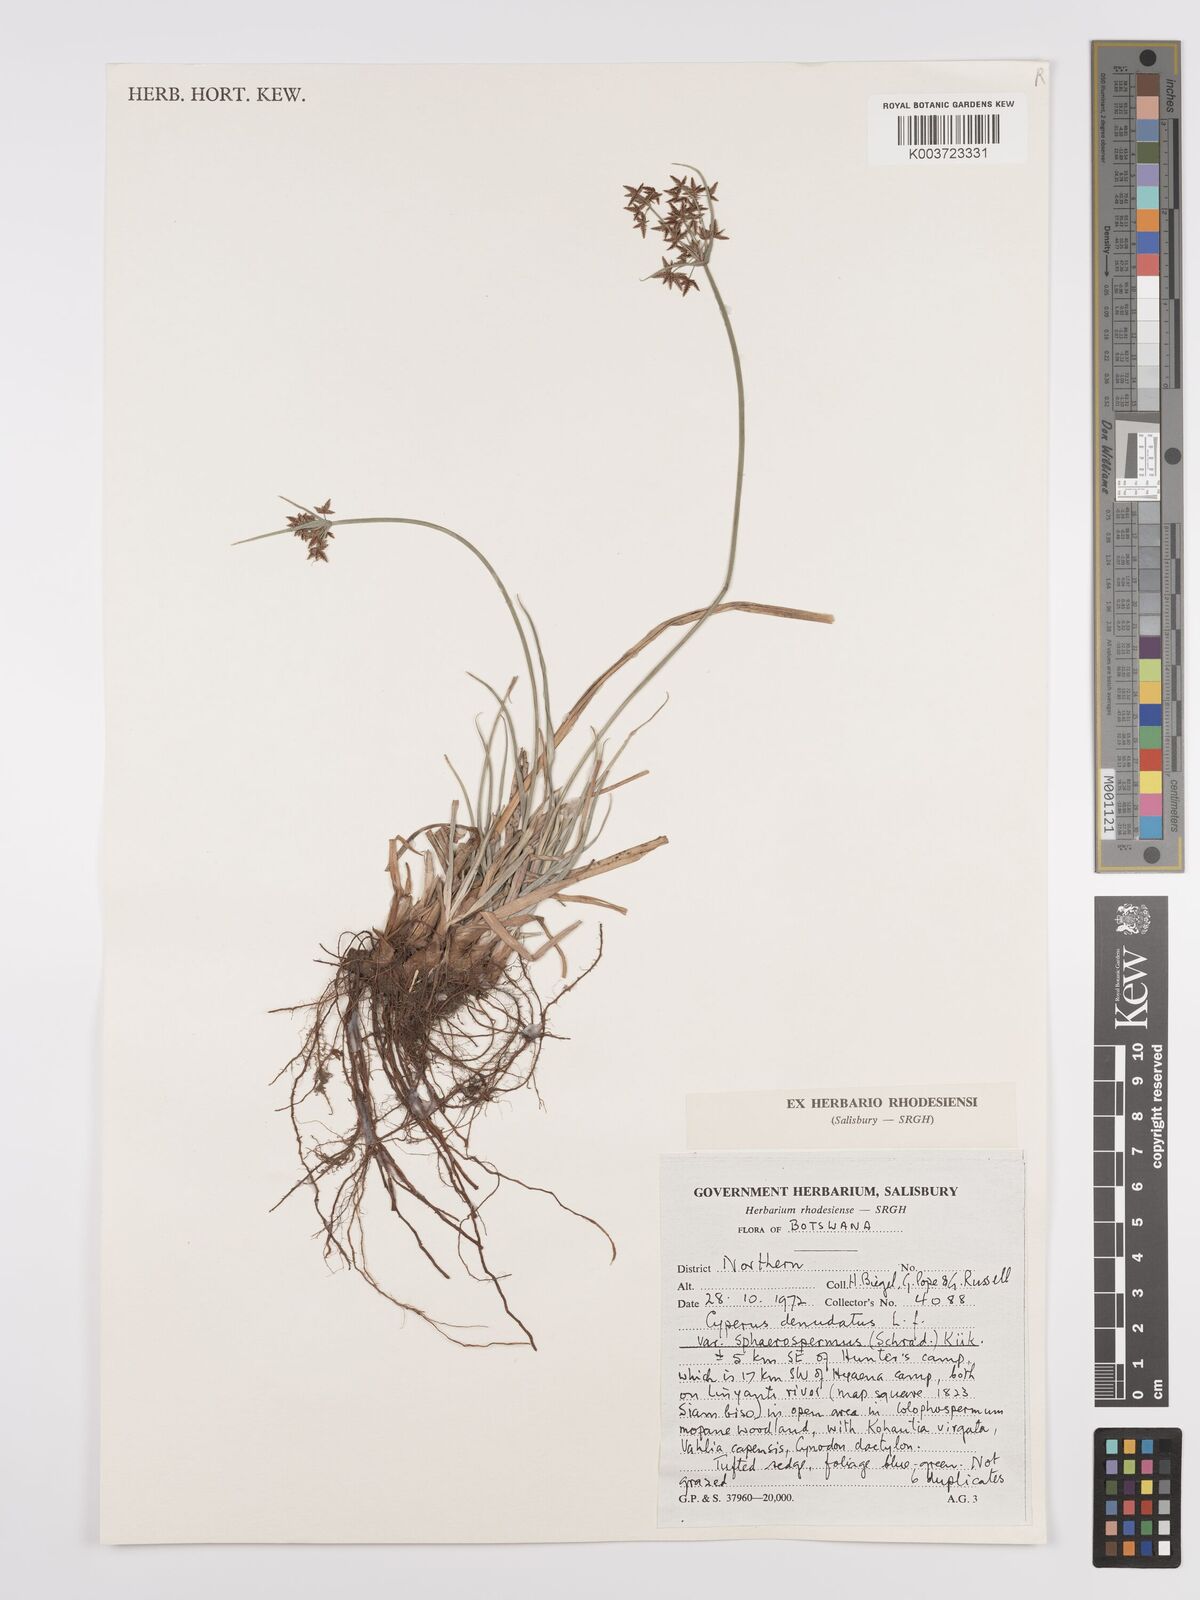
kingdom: Plantae
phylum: Tracheophyta
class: Liliopsida
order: Poales
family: Cyperaceae
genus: Cyperus
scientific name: Cyperus denudatus
